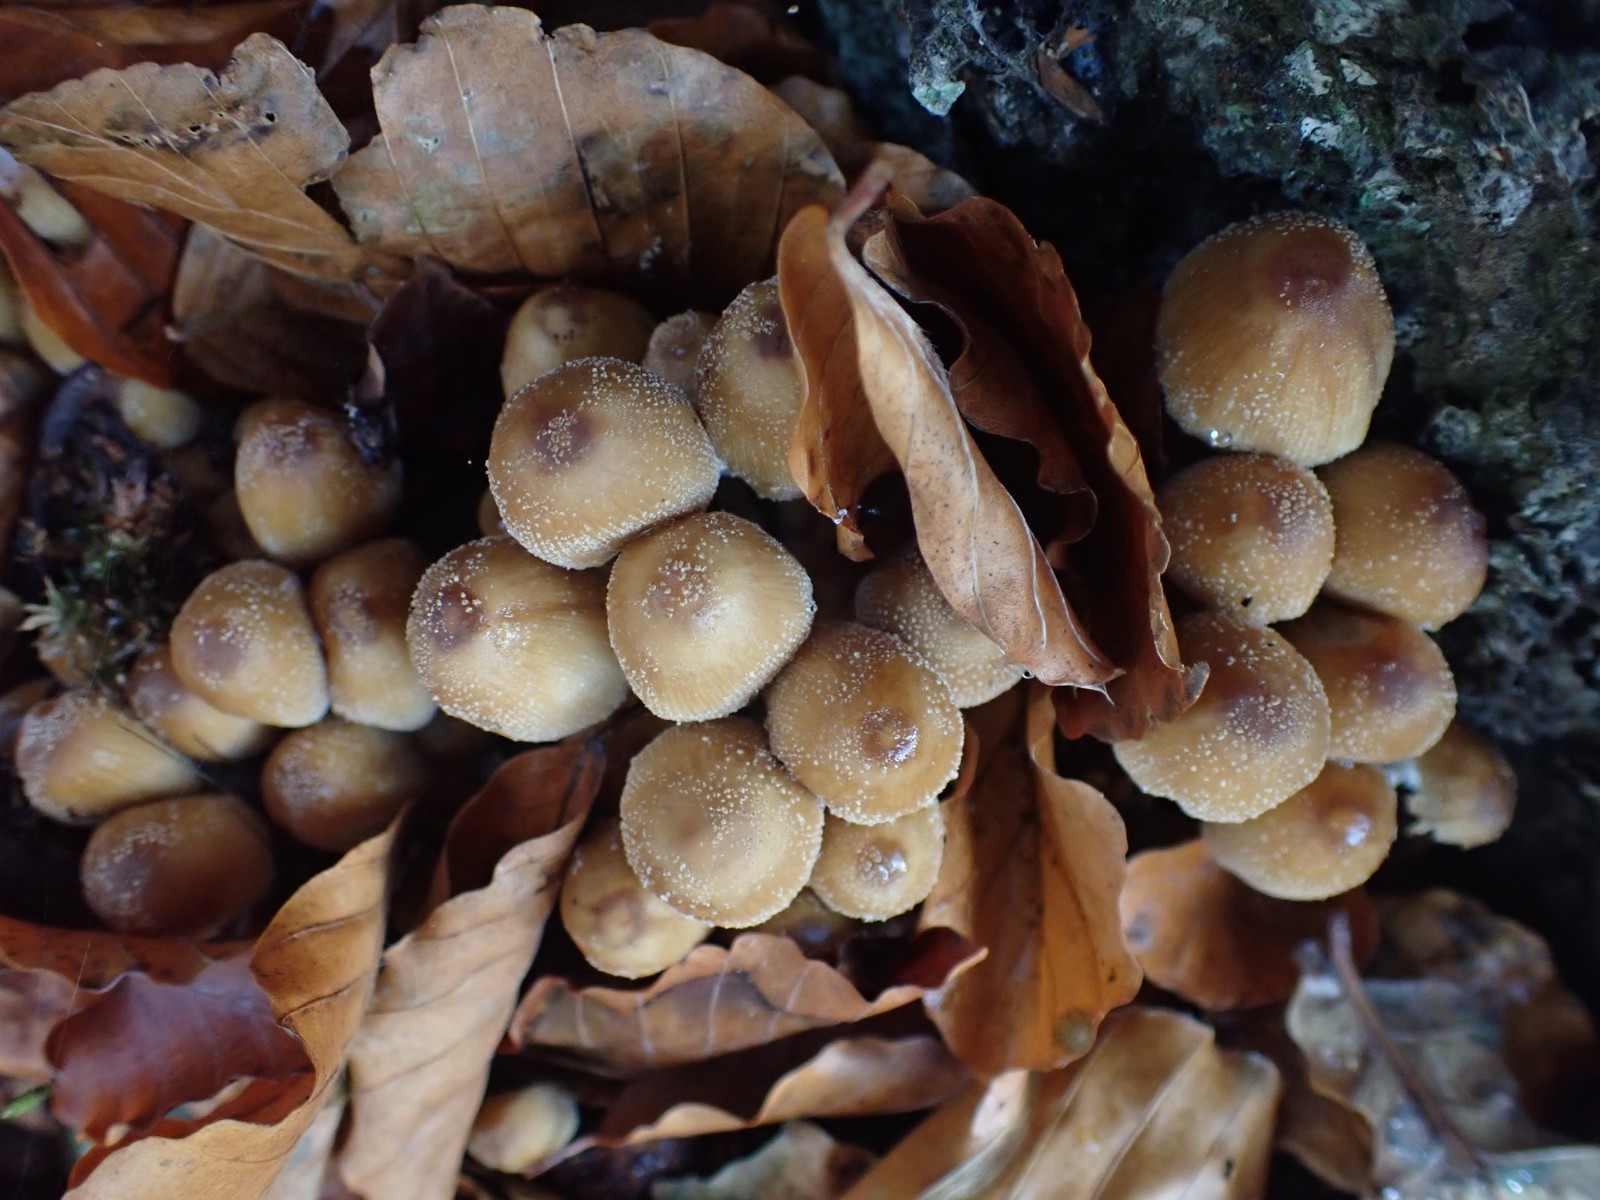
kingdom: Fungi
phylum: Basidiomycota
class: Agaricomycetes
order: Agaricales
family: Psathyrellaceae
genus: Coprinellus
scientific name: Coprinellus micaceus
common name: glimmer-blækhat
